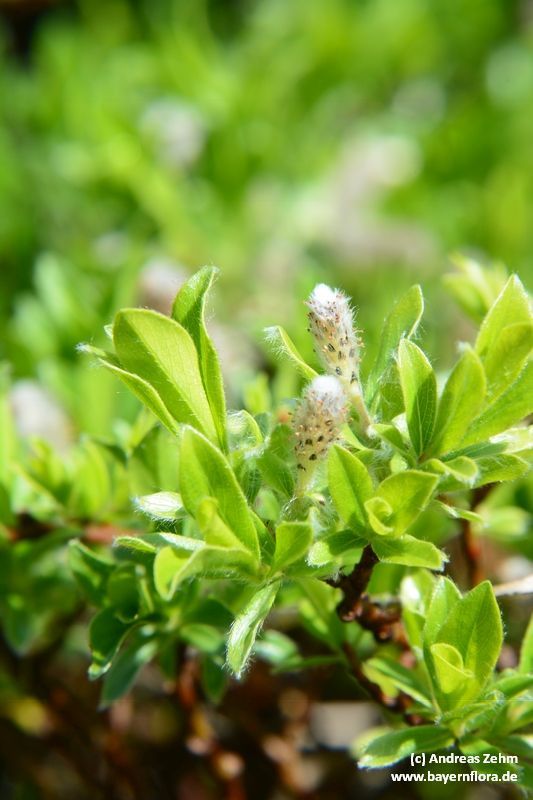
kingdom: Plantae
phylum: Tracheophyta
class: Magnoliopsida
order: Malpighiales
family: Salicaceae
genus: Salix
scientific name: Salix alpina
